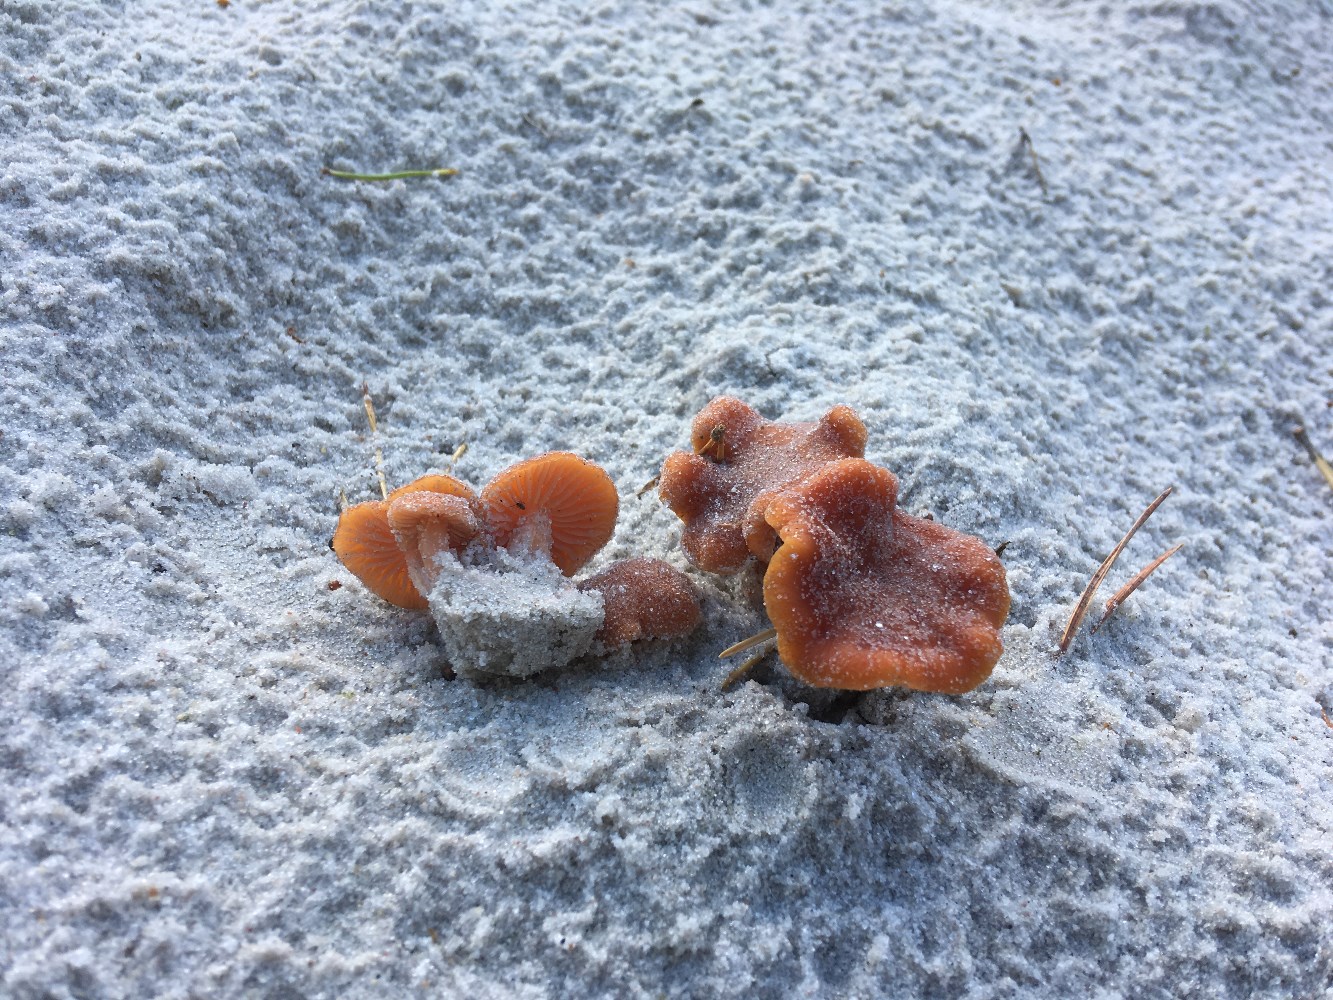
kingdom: Fungi
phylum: Basidiomycota
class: Agaricomycetes
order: Agaricales
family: Hydnangiaceae
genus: Laccaria
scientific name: Laccaria maritima
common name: klit-ametysthat
